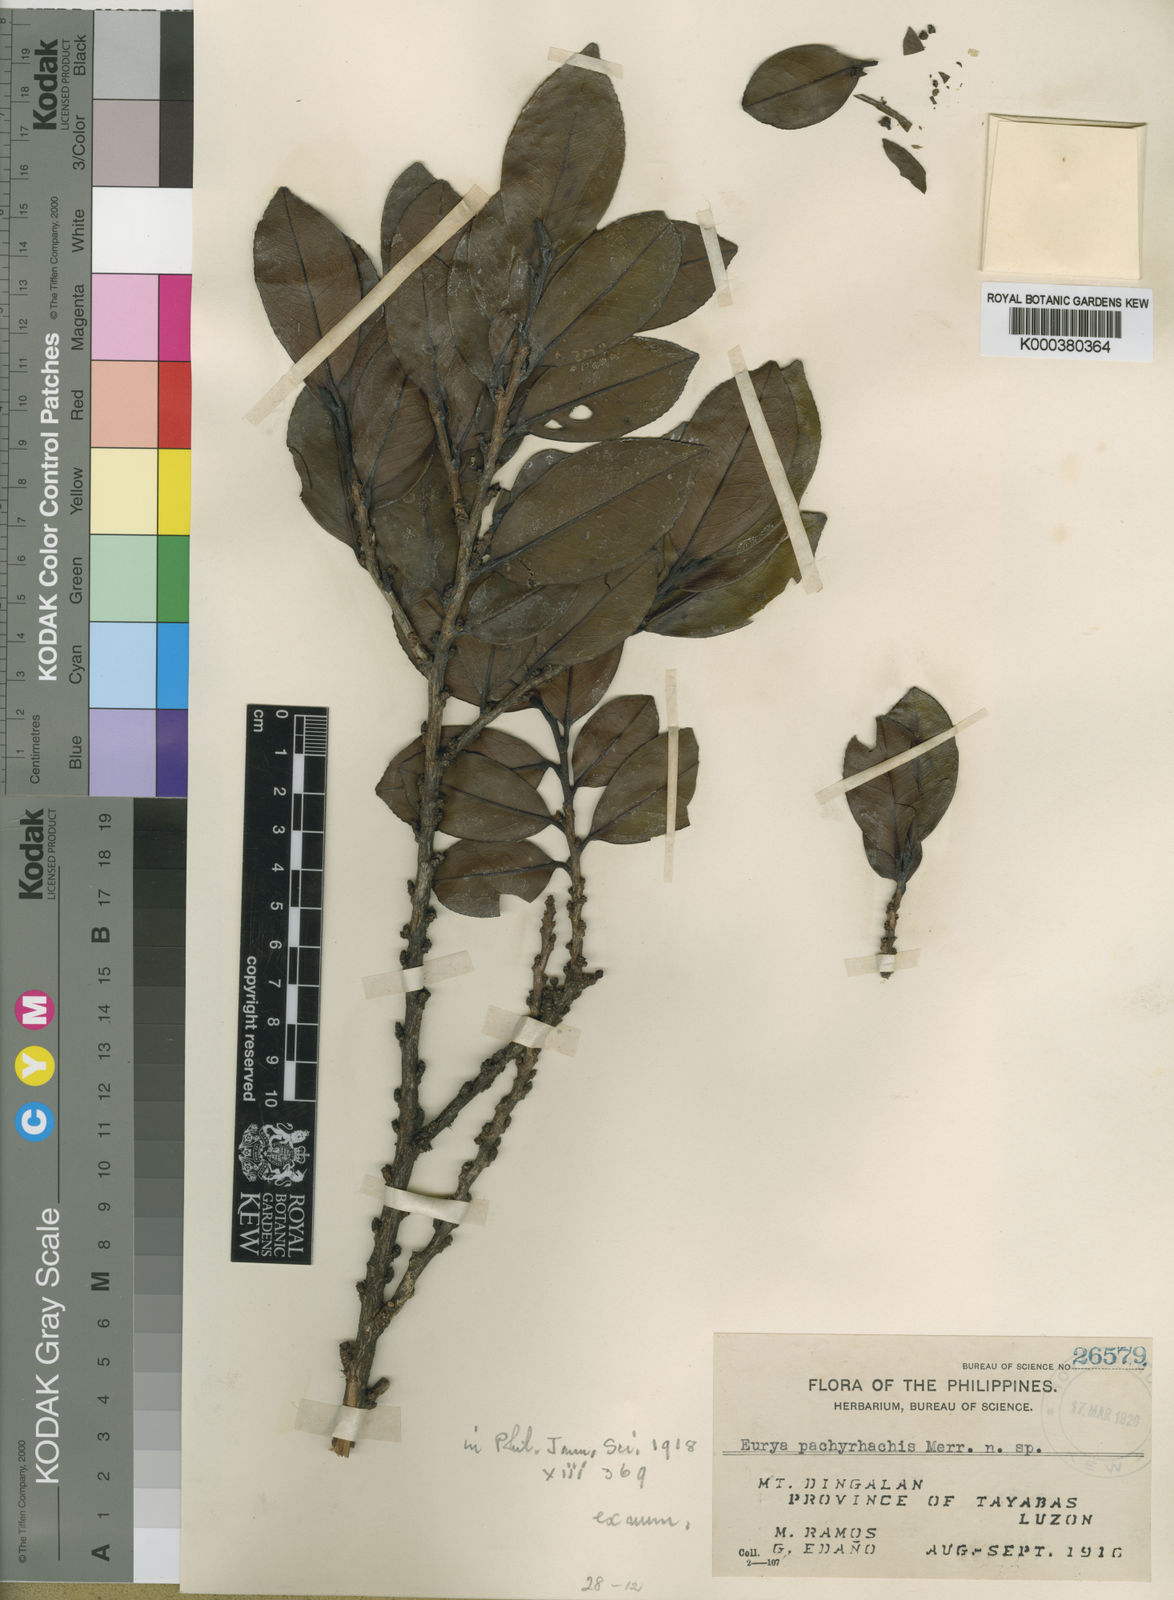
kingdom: Plantae
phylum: Tracheophyta
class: Magnoliopsida
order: Ericales
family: Pentaphylacaceae
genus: Eurya
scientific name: Eurya coriacea
